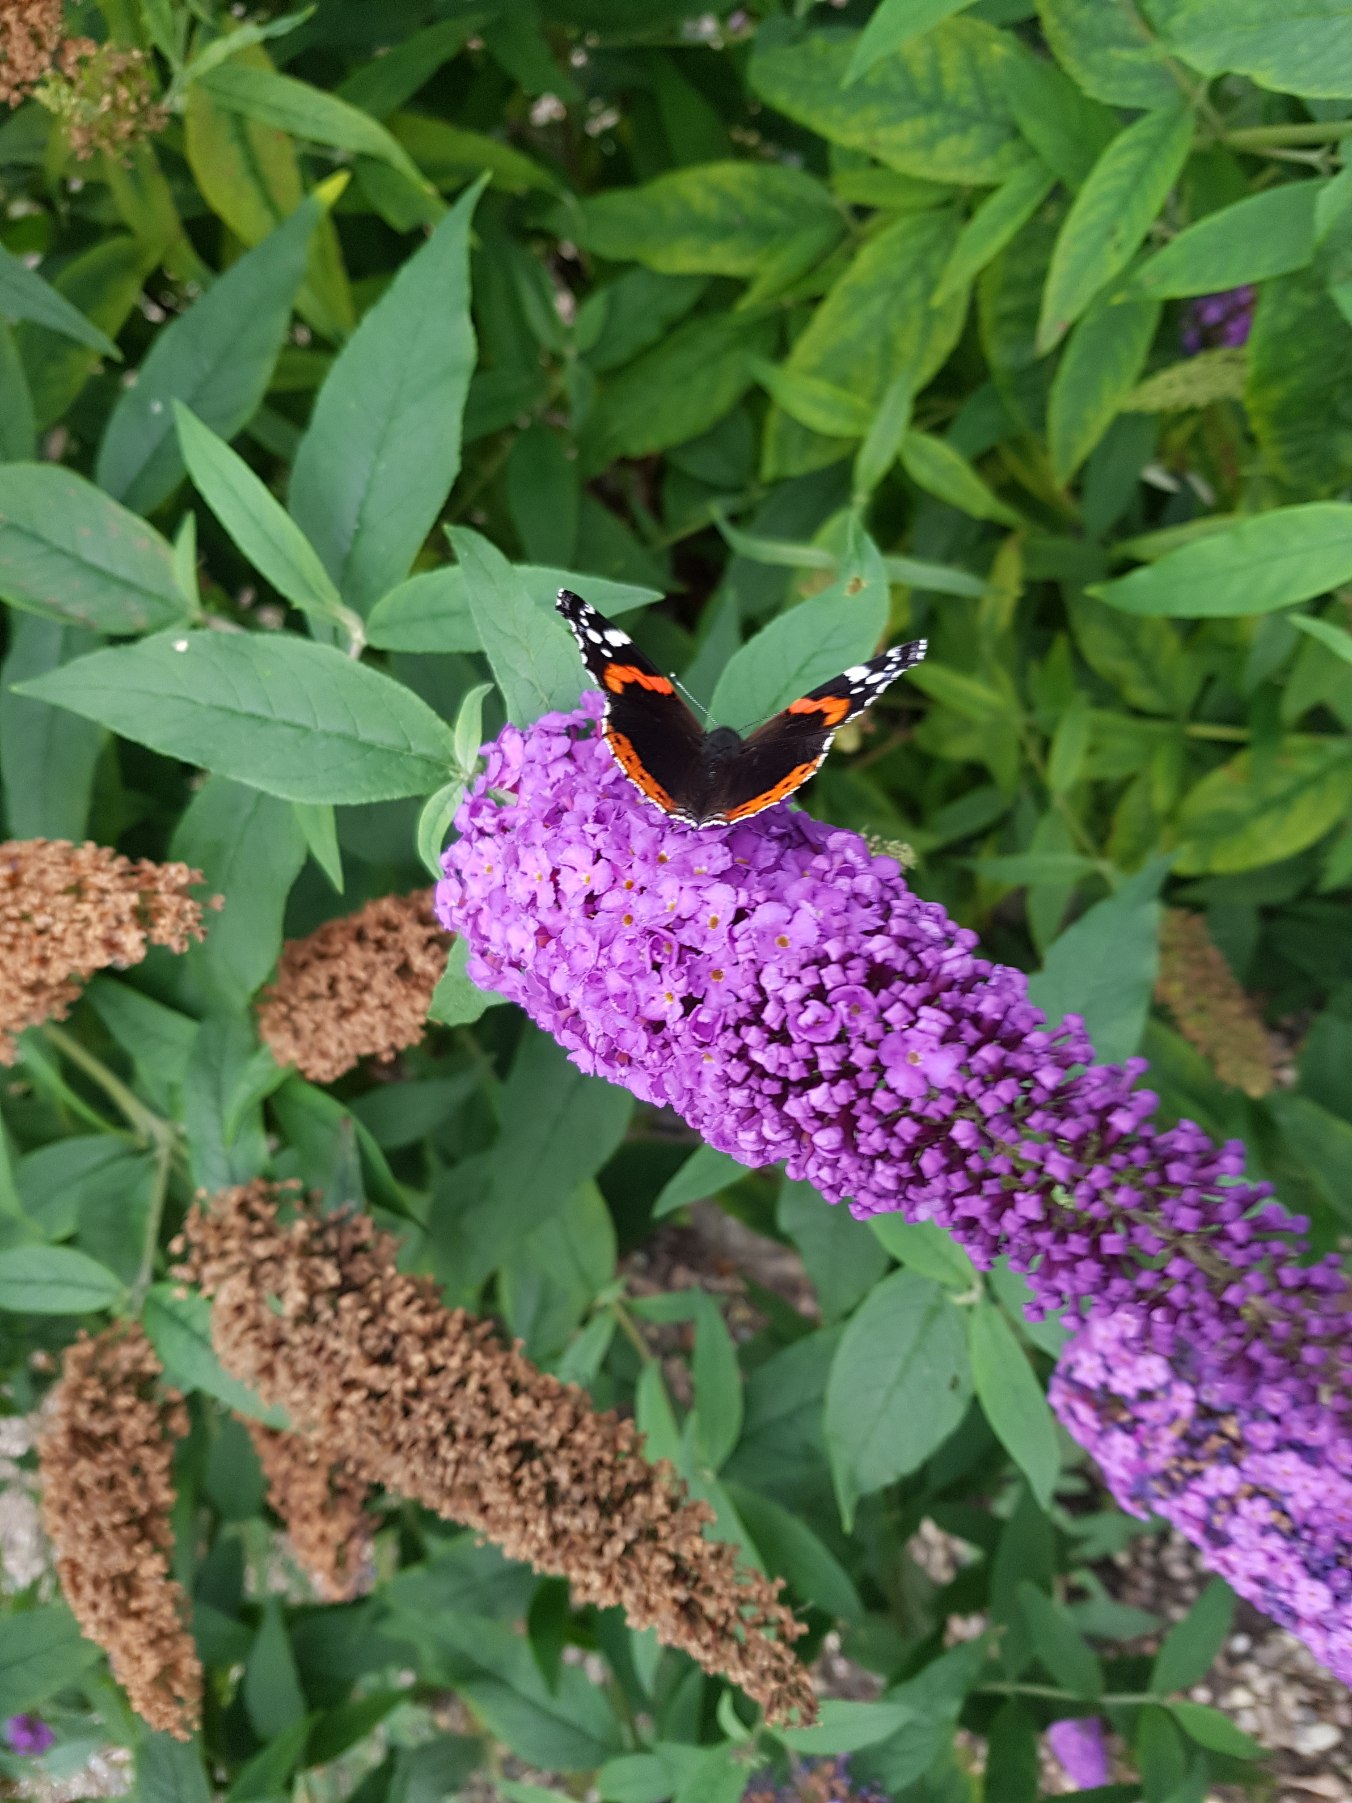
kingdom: Animalia
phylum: Arthropoda
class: Insecta
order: Lepidoptera
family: Nymphalidae
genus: Vanessa
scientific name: Vanessa atalanta
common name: Admiral
